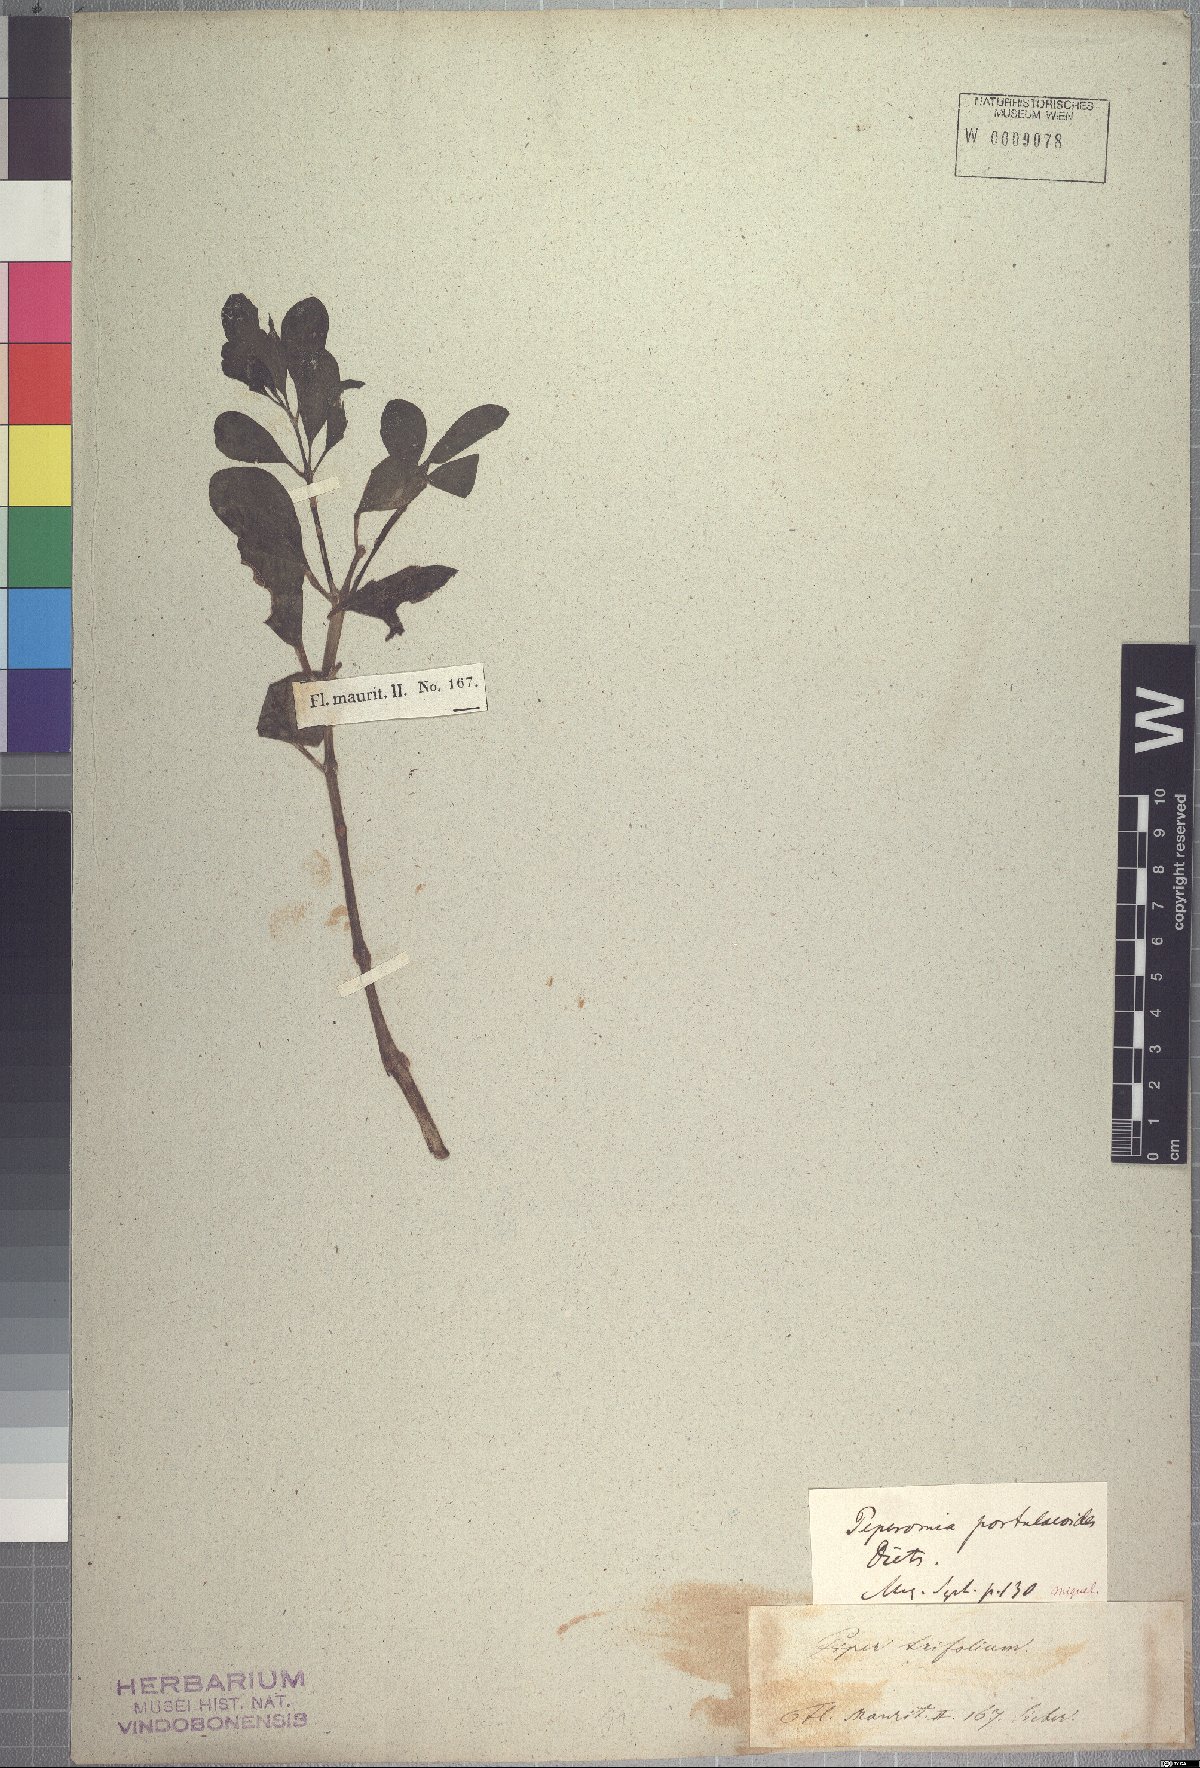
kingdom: Plantae
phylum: Tracheophyta
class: Magnoliopsida
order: Piperales
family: Piperaceae
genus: Peperomia
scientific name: Peperomia portulacoides
